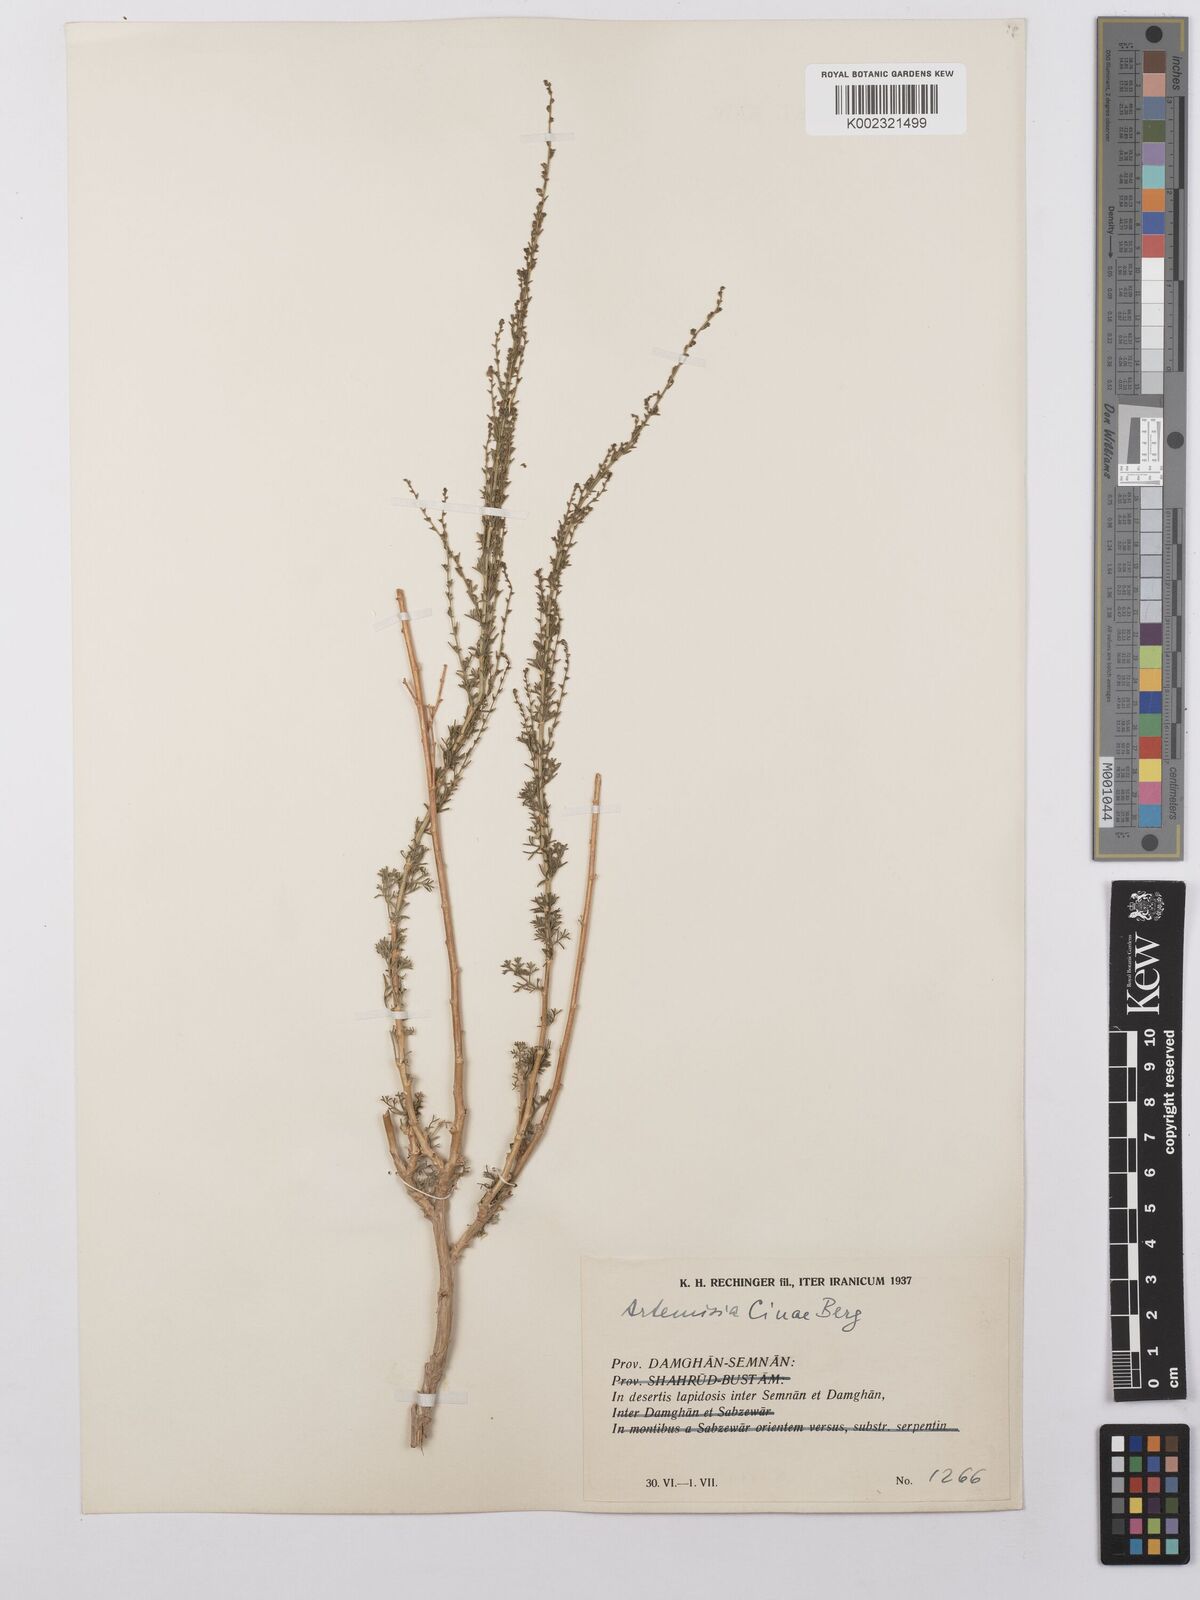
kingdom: Plantae
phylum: Tracheophyta
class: Magnoliopsida
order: Asterales
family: Asteraceae
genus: Artemisia
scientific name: Artemisia cina
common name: Levant wormseed
